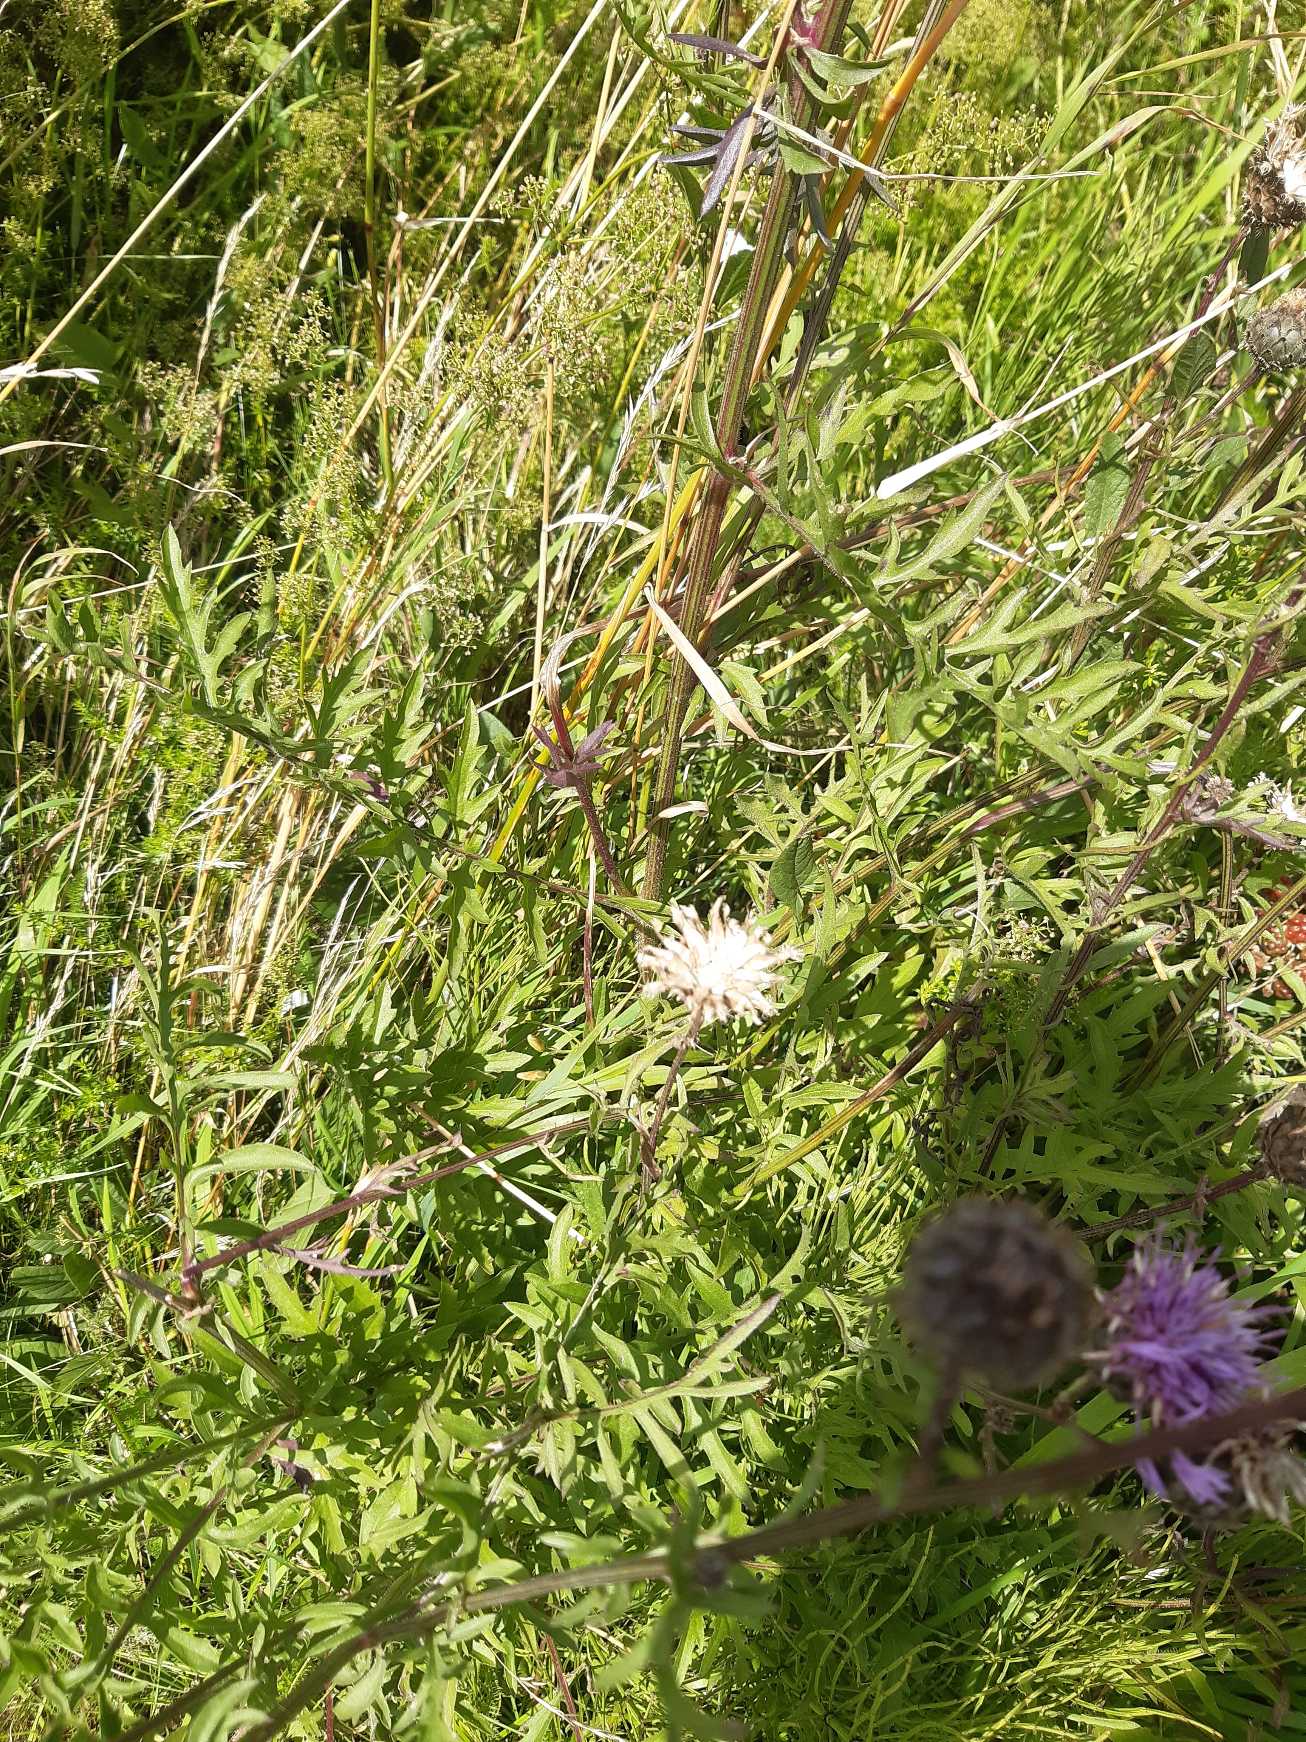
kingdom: Plantae
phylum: Tracheophyta
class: Magnoliopsida
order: Asterales
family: Asteraceae
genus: Centaurea
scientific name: Centaurea scabiosa
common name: Stor knopurt
